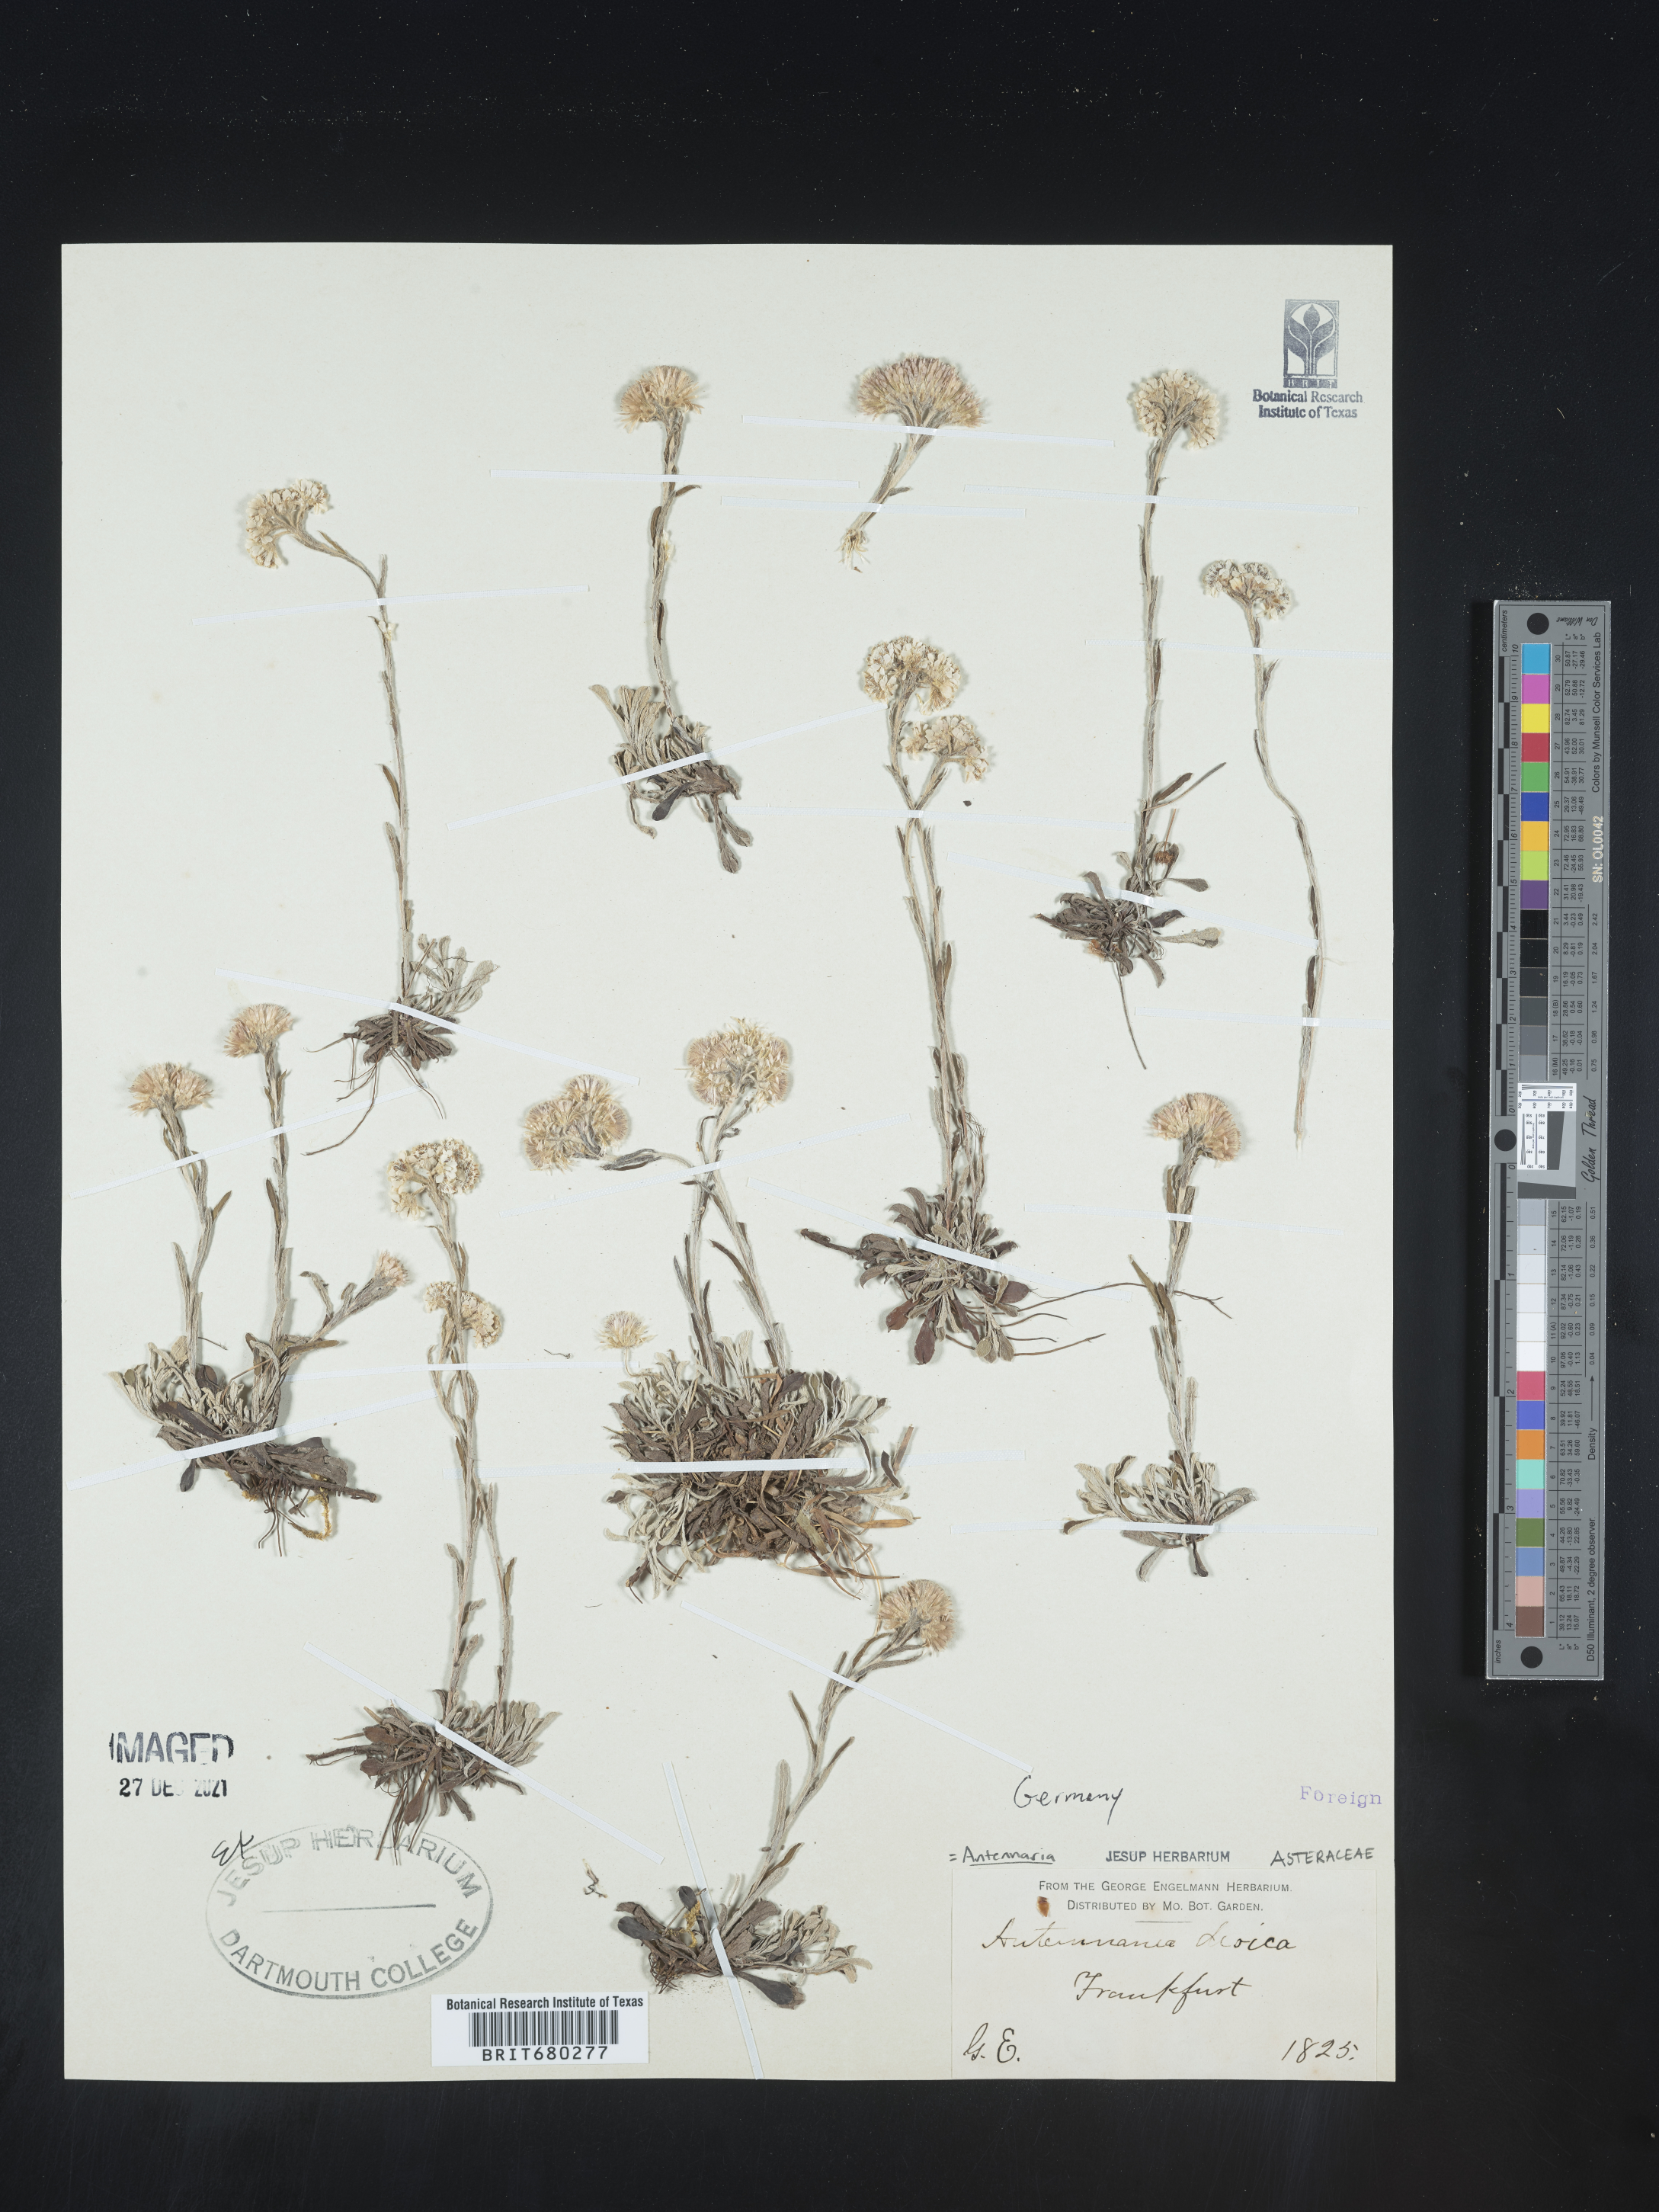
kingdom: Plantae
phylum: Tracheophyta
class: Magnoliopsida
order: Asterales
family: Asteraceae
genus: Antennaria
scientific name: Antennaria dioica
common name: Mountain everlasting
